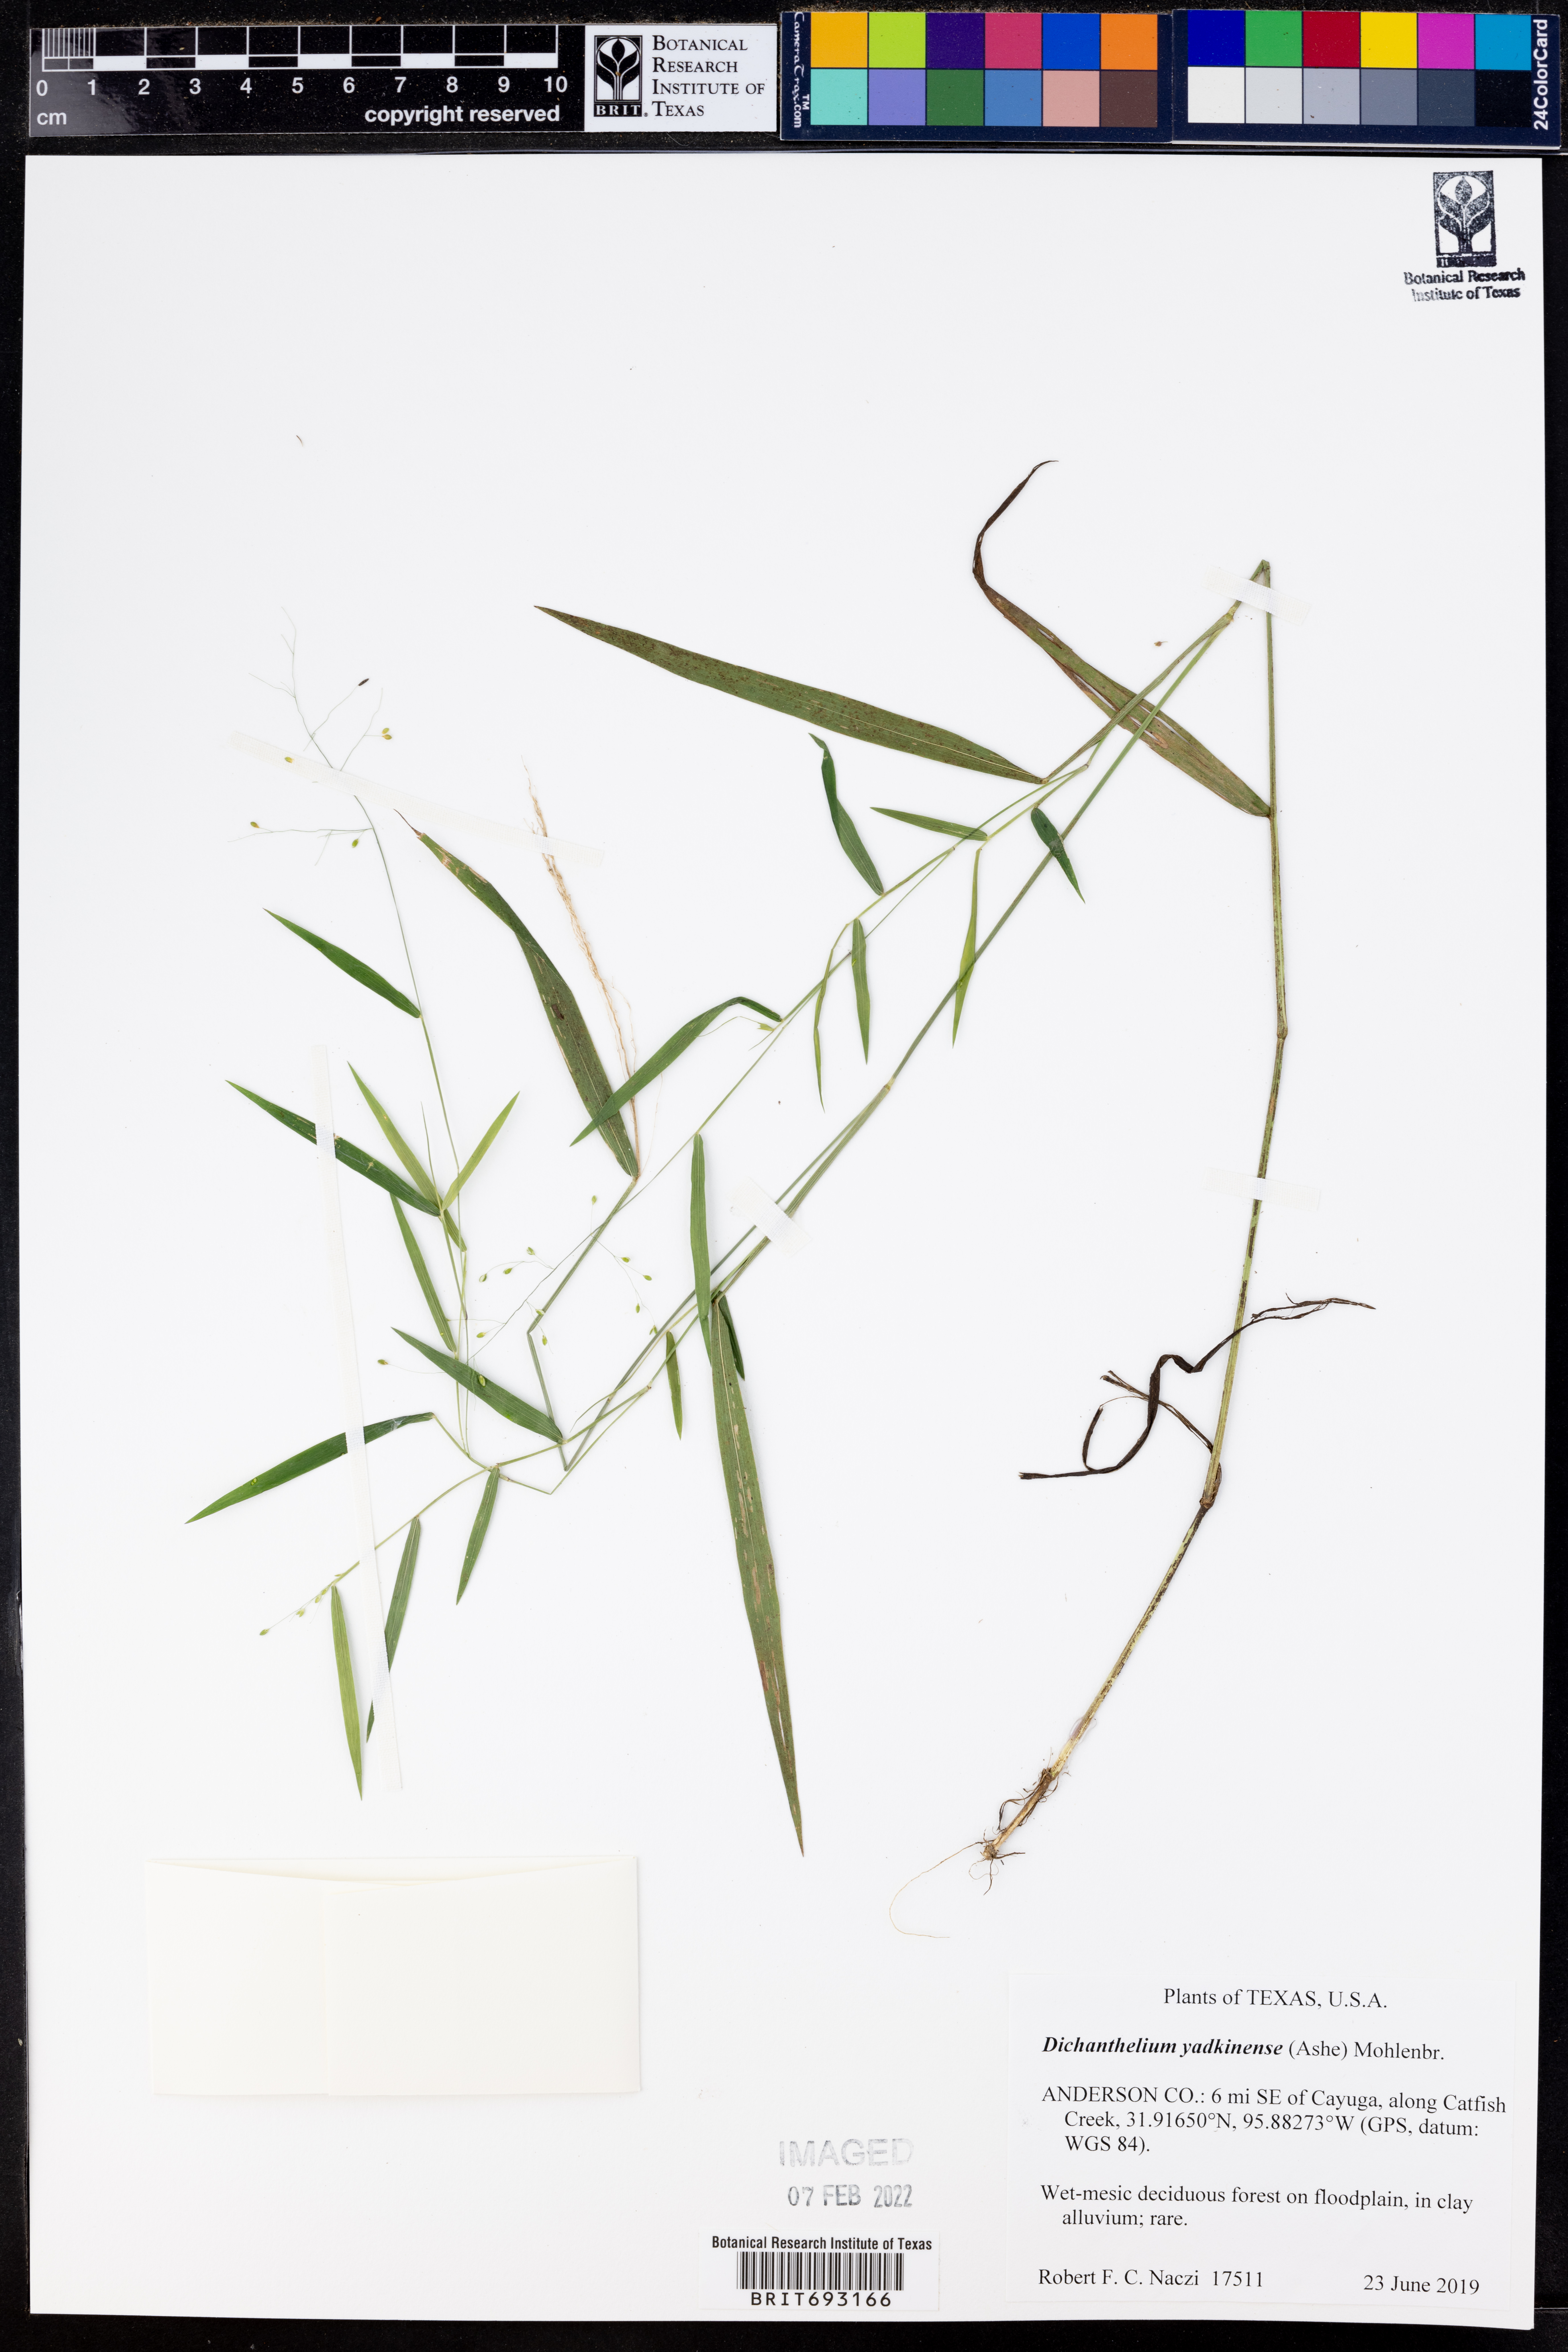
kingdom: Plantae
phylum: Tracheophyta
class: Liliopsida
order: Poales
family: Poaceae
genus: Dichanthelium
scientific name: Dichanthelium yadkinense
